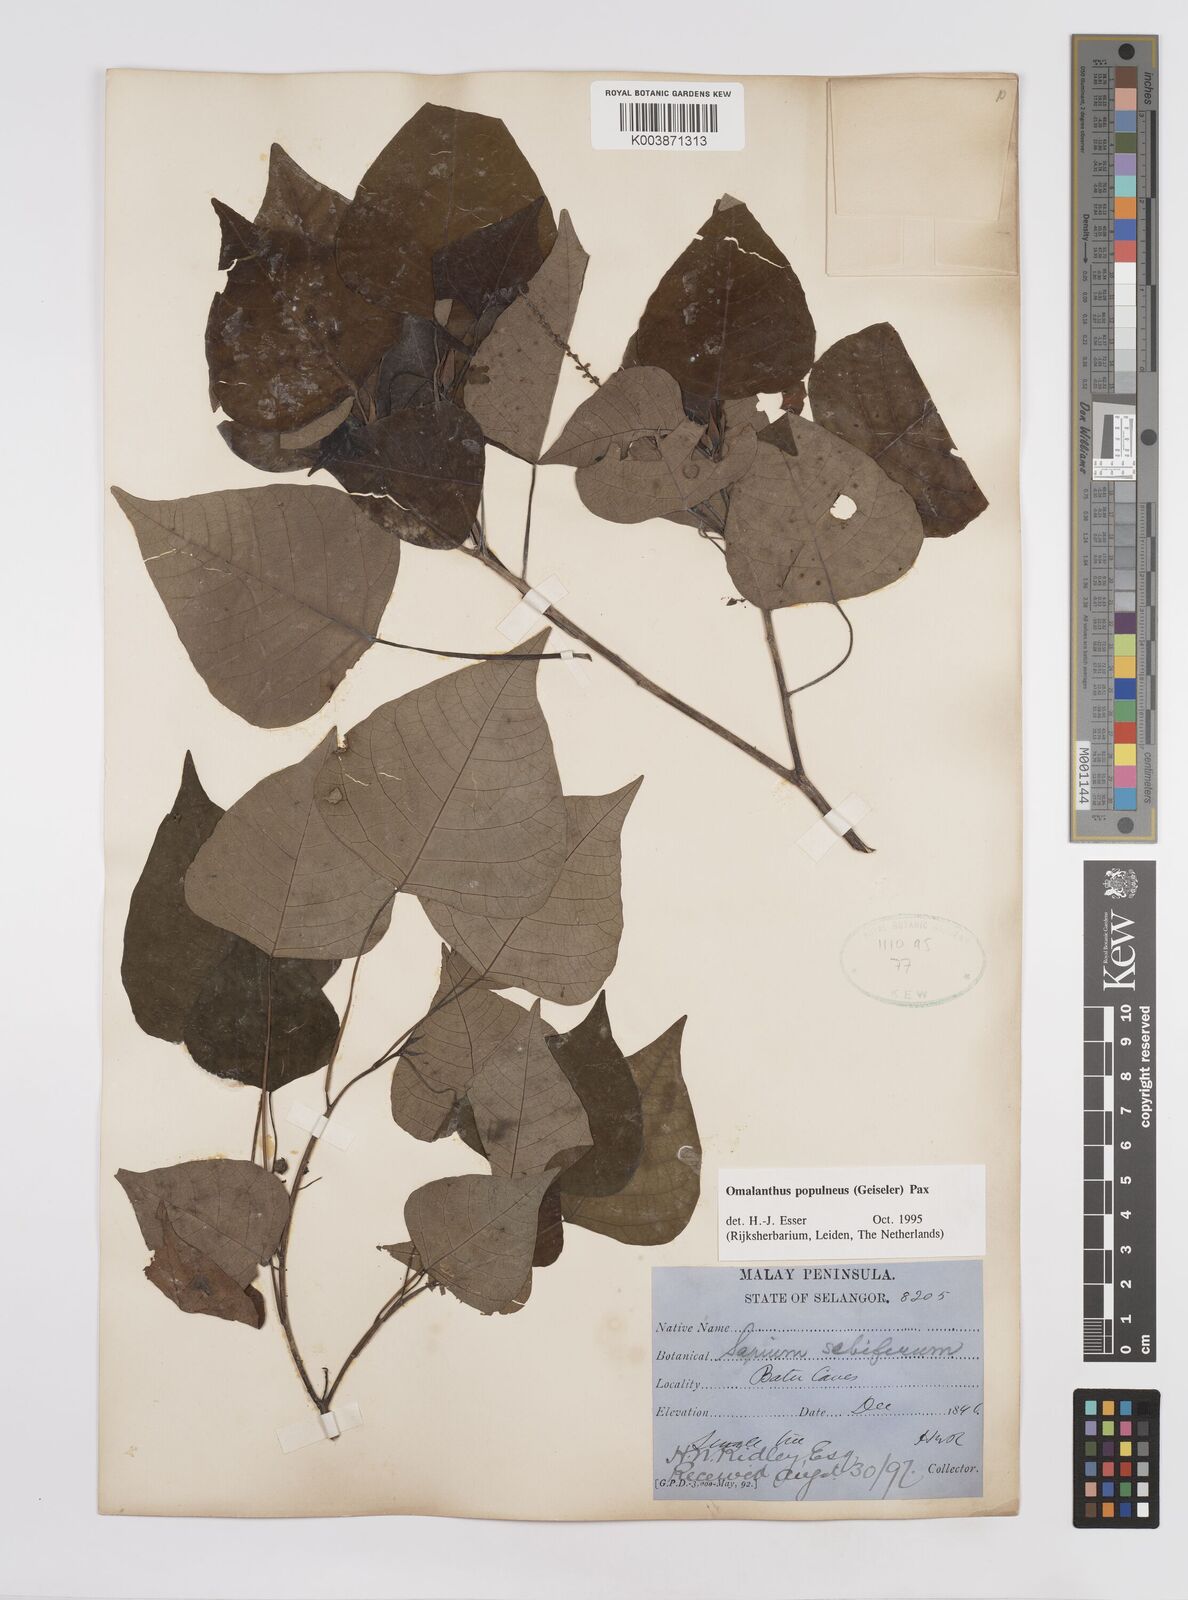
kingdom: Plantae
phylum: Tracheophyta
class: Magnoliopsida
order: Malpighiales
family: Euphorbiaceae
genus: Homalanthus
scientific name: Homalanthus populneus
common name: Spurge
